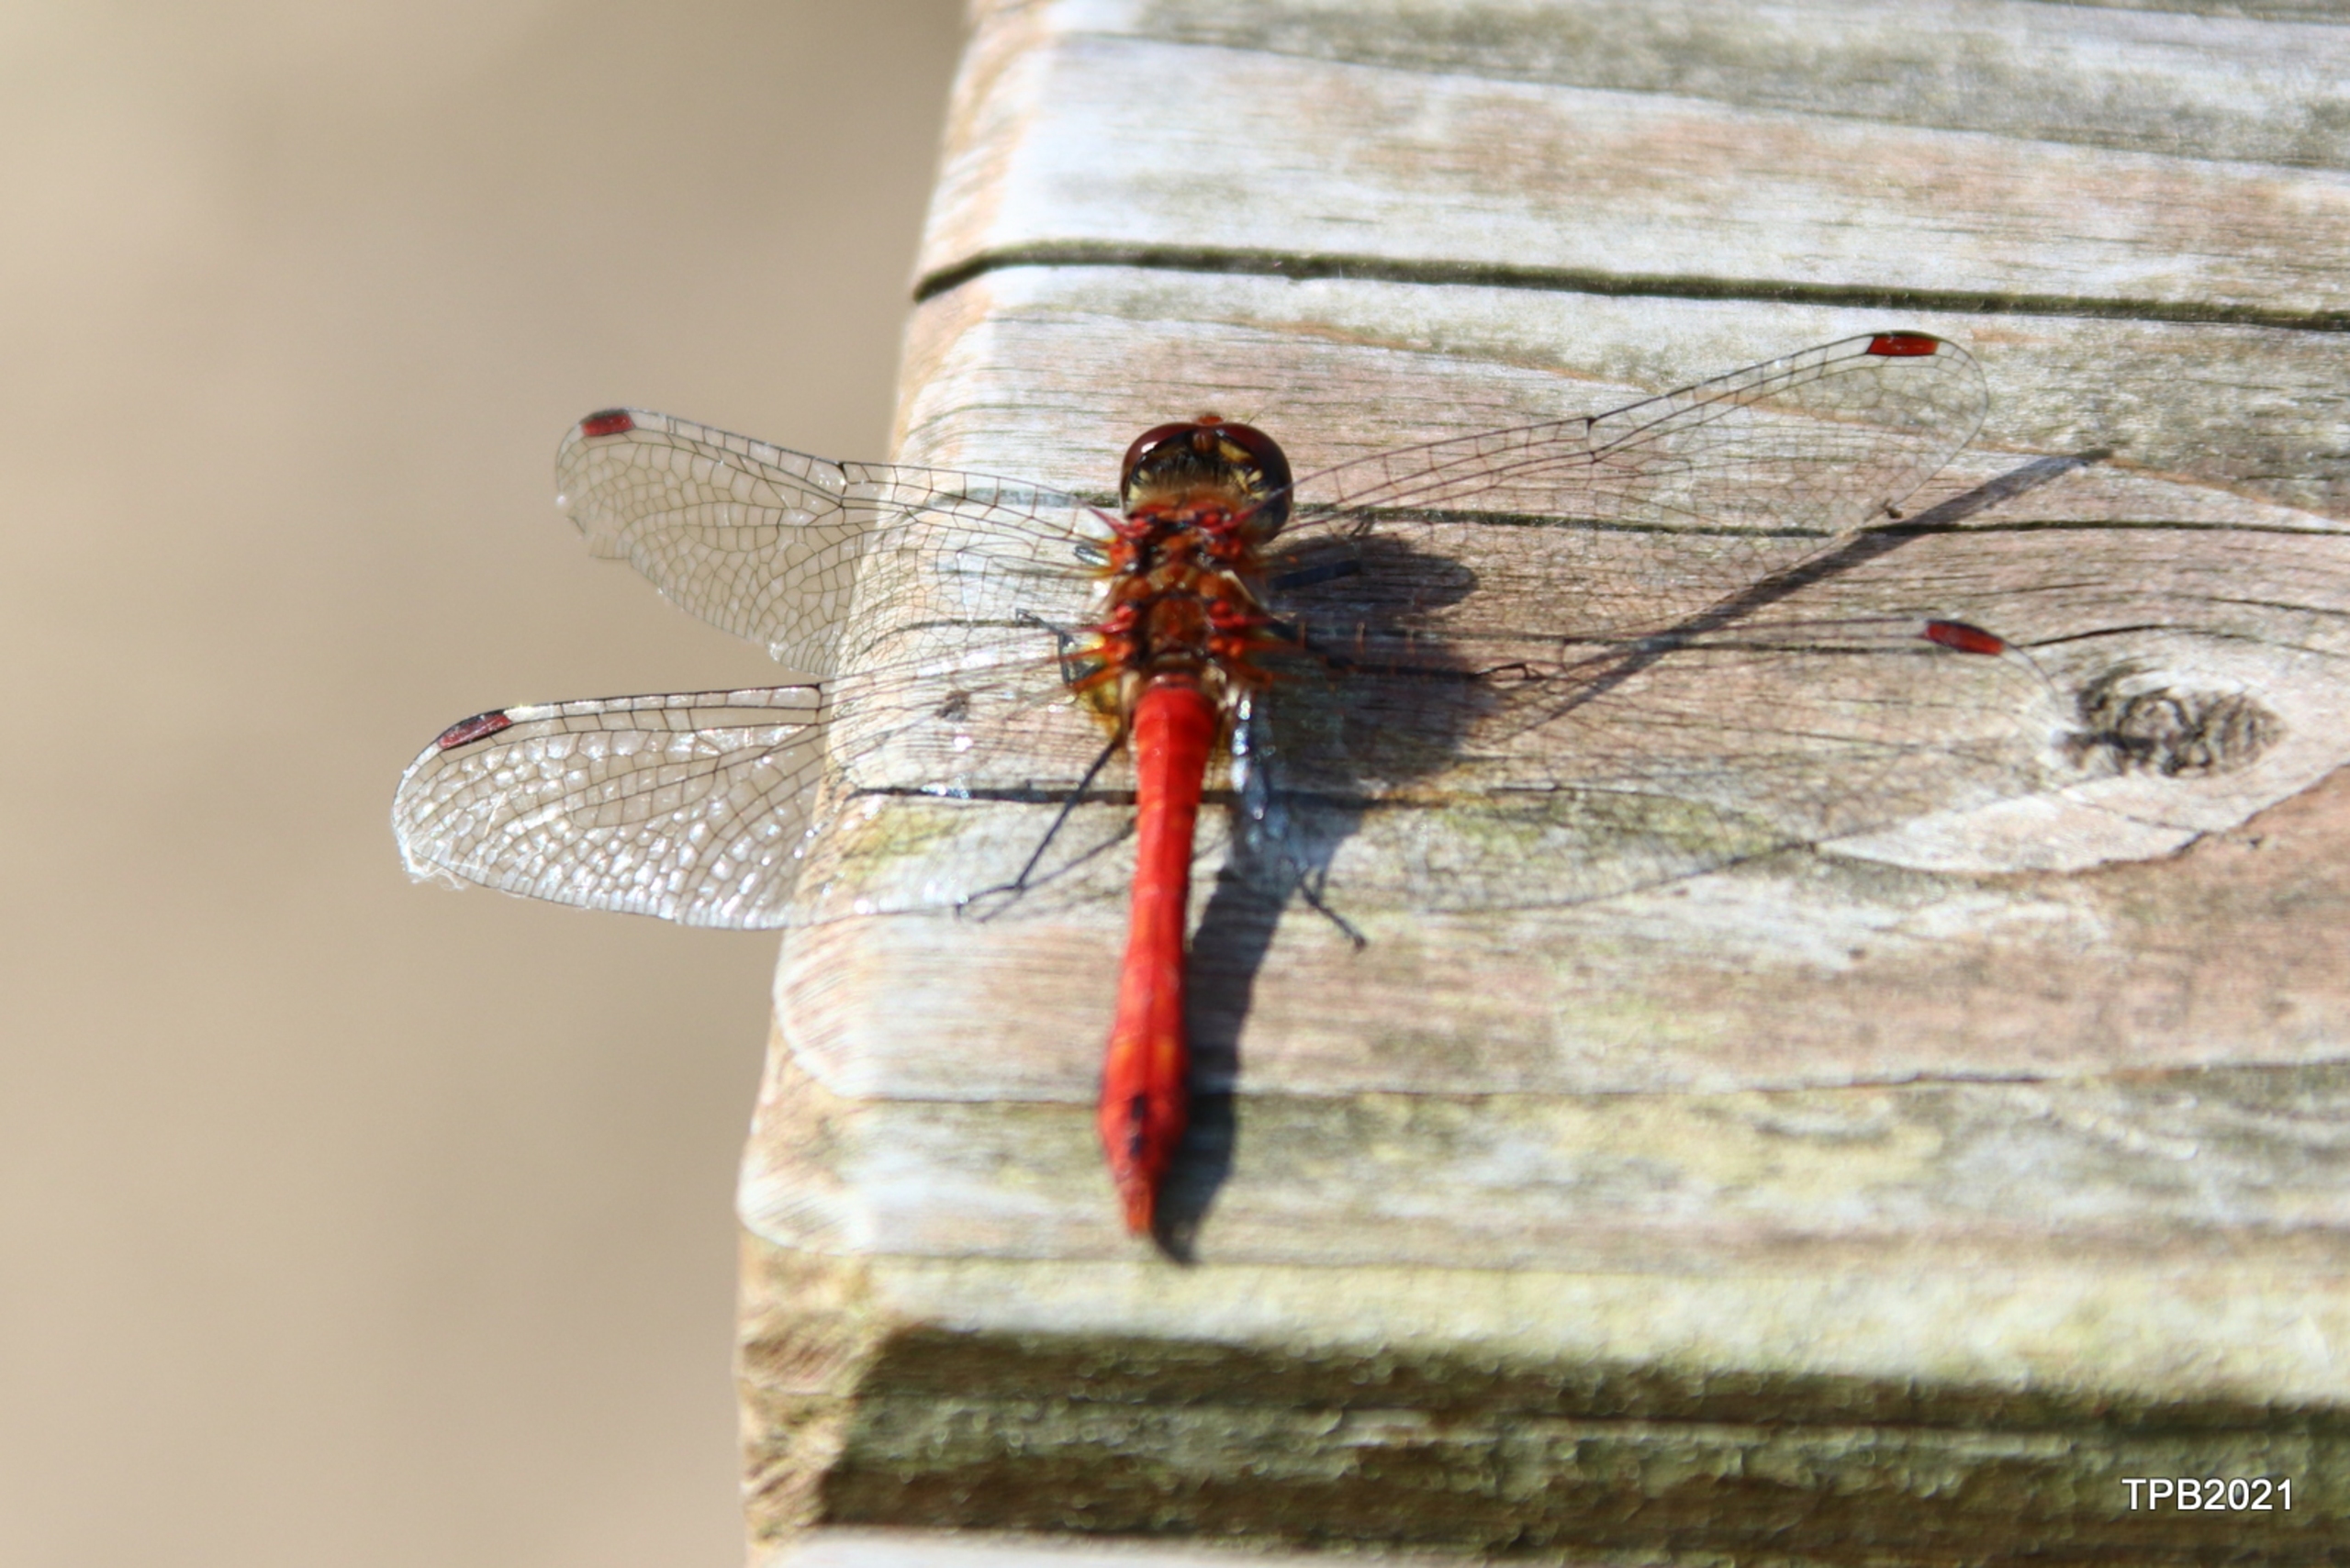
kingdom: Animalia
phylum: Arthropoda
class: Insecta
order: Odonata
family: Libellulidae
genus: Sympetrum
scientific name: Sympetrum sanguineum
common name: Blodrød hedelibel
